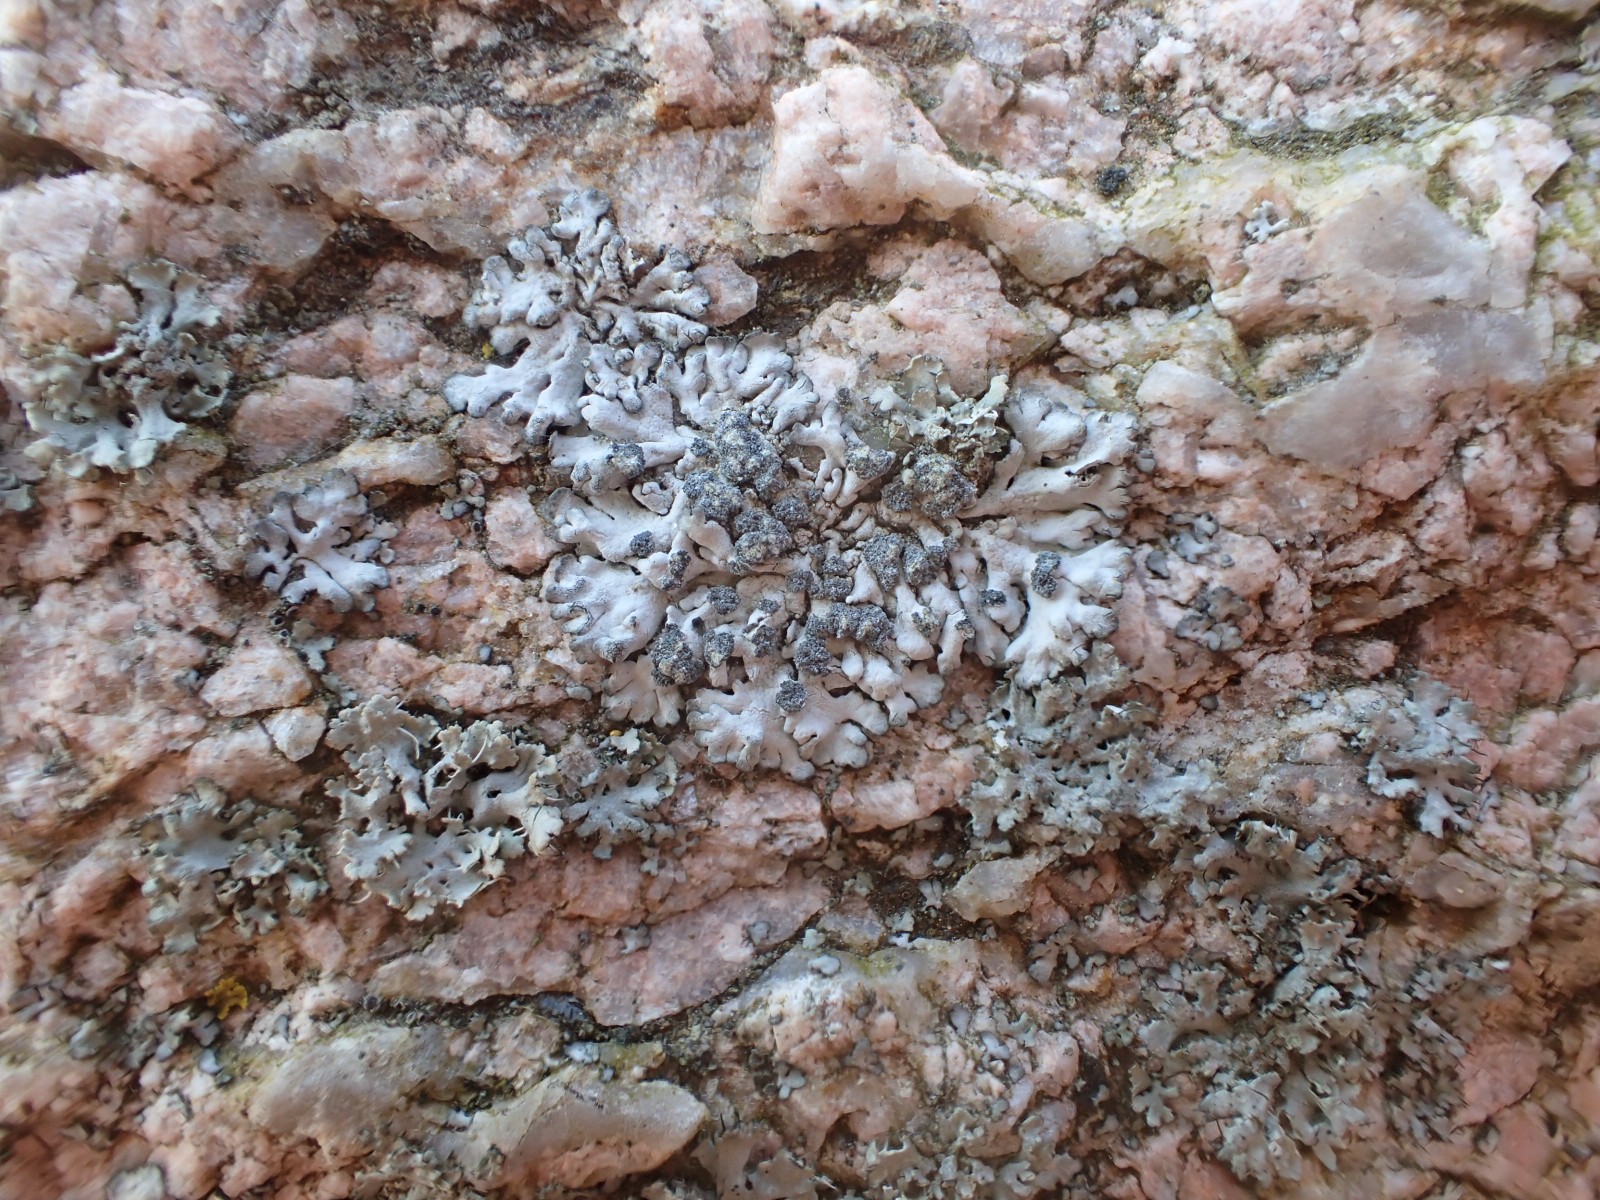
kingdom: Fungi
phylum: Ascomycota
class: Lecanoromycetes
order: Caliciales
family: Physciaceae
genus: Physcia
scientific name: Physcia caesia
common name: blågrå rosetlav
